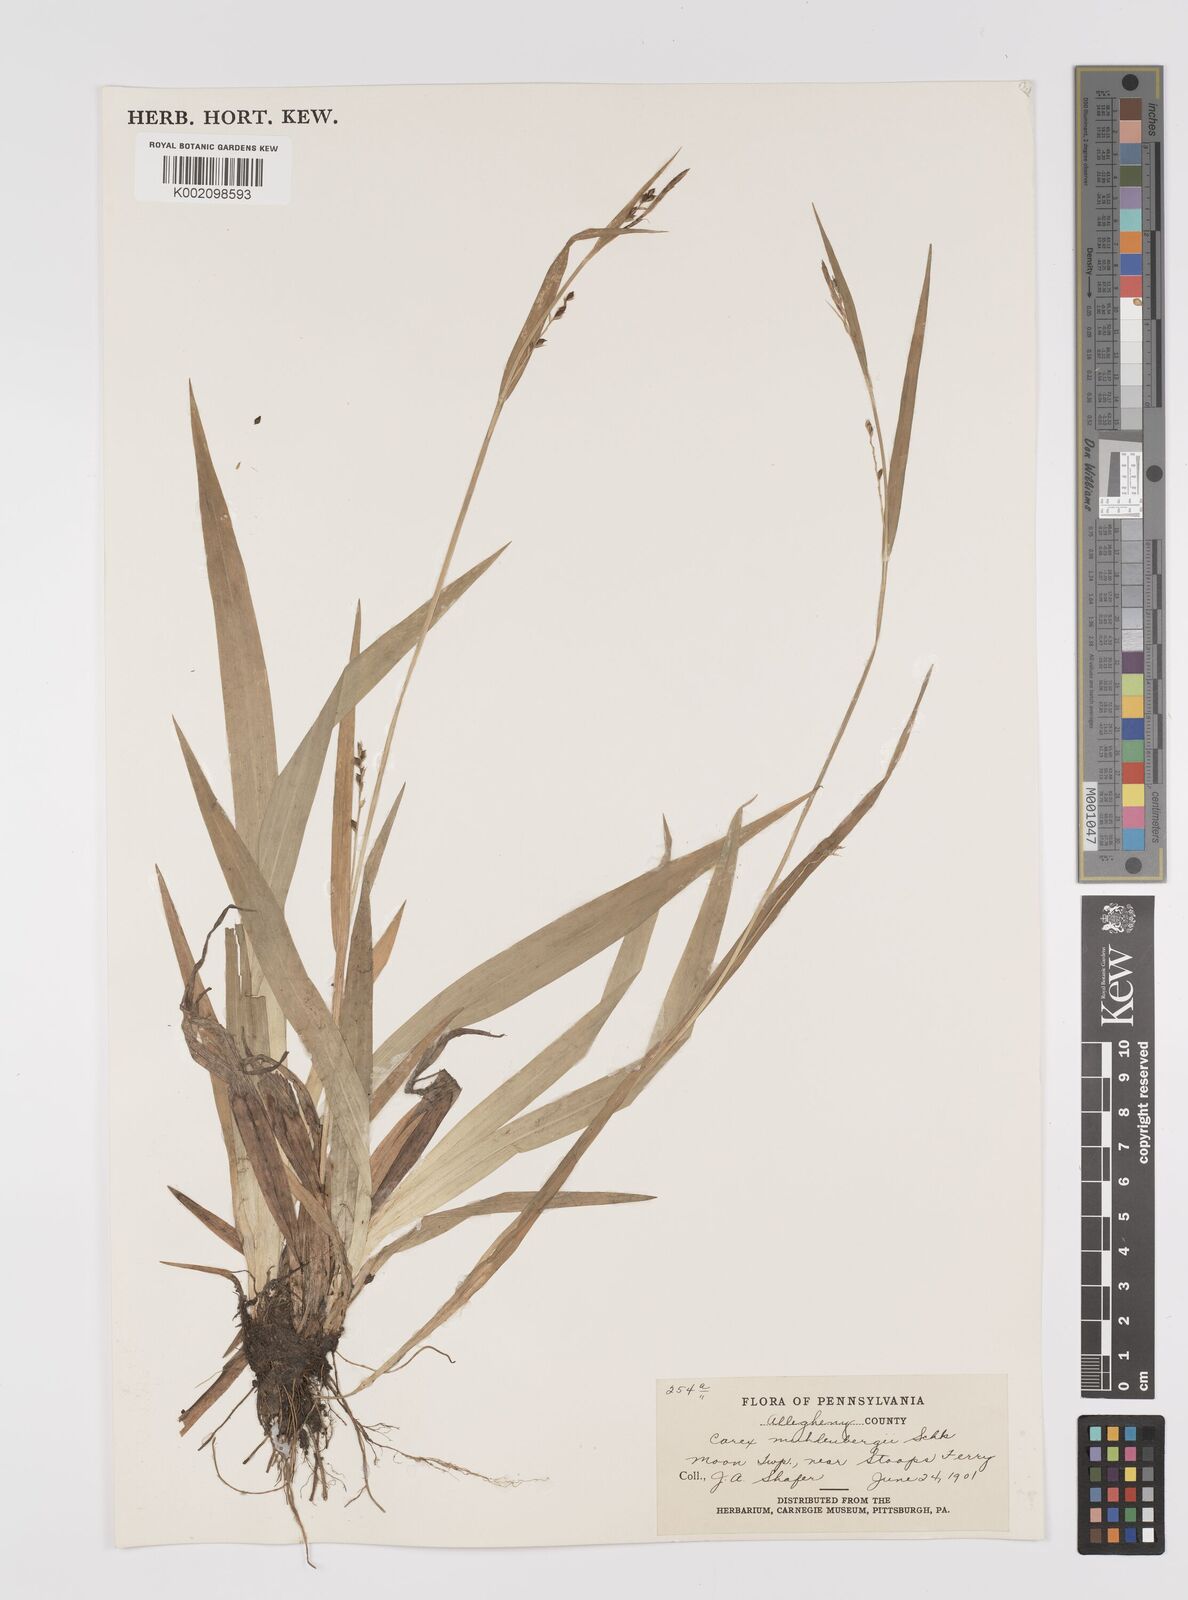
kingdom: Plantae
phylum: Tracheophyta
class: Liliopsida
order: Poales
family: Cyperaceae
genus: Carex
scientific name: Carex vulpinoidea
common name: American fox-sedge
